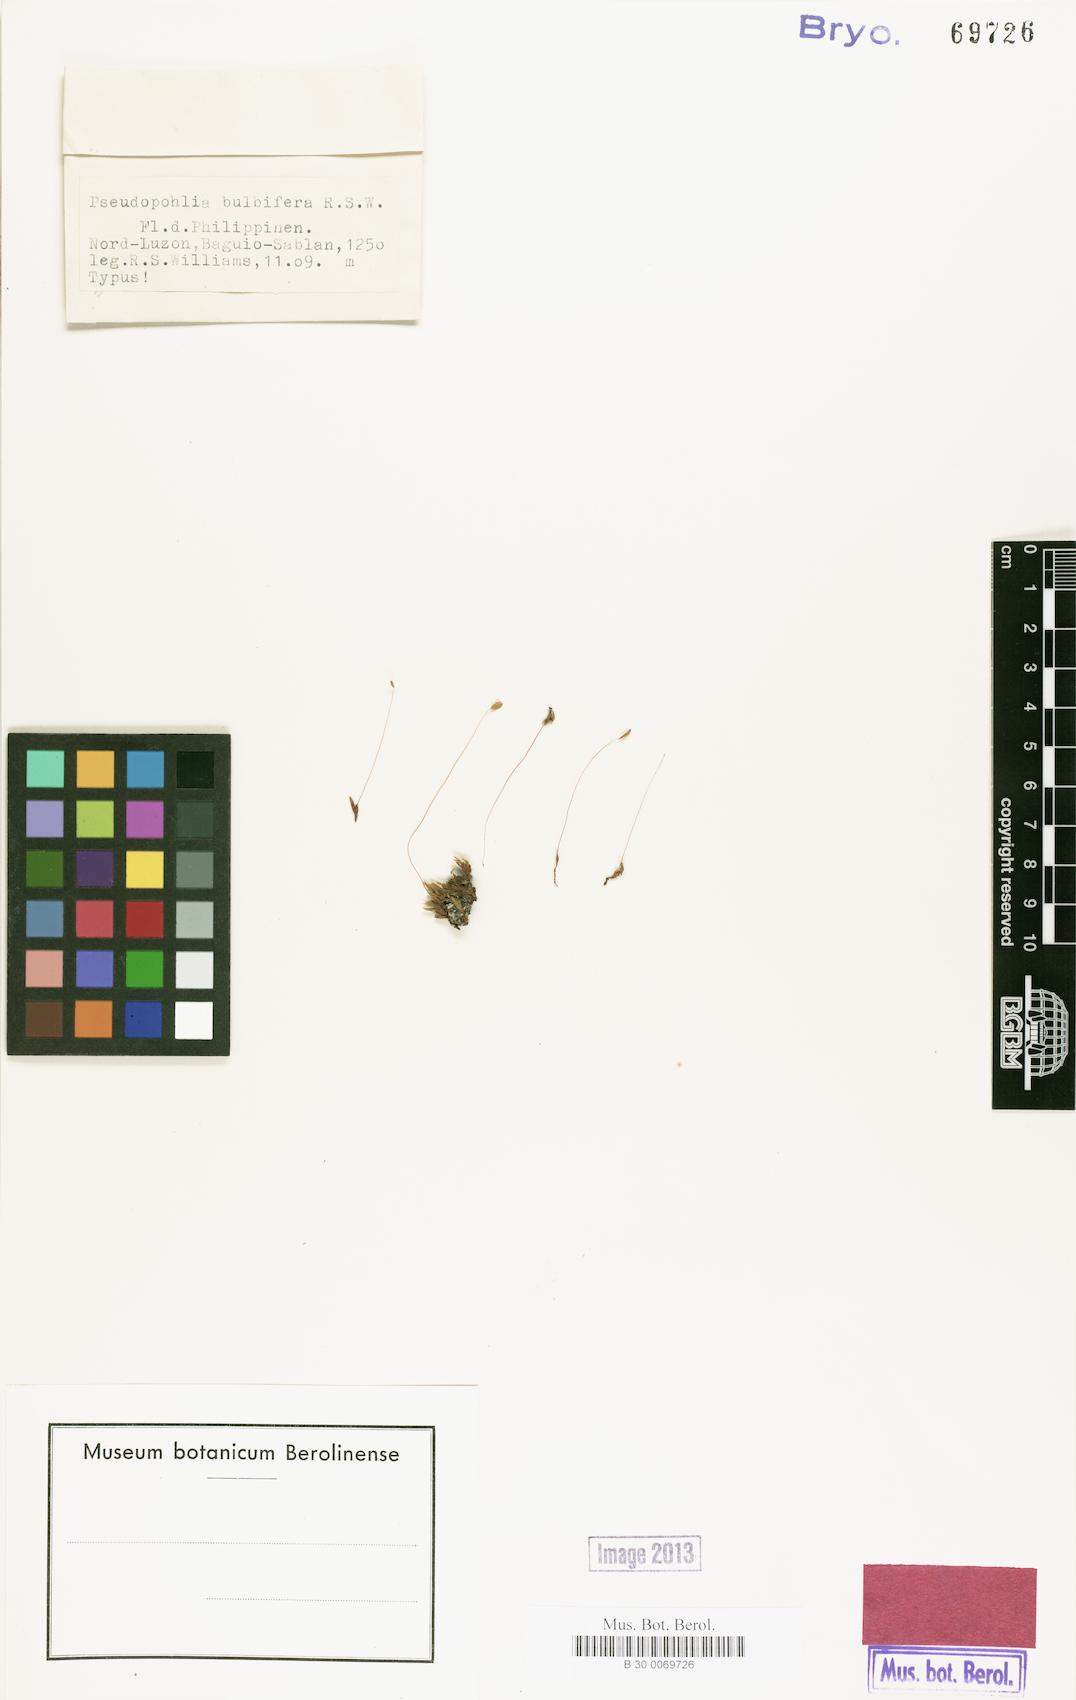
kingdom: Plantae
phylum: Bryophyta
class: Bryopsida
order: Bryales
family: Mniaceae
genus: Pseudopohlia
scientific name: Pseudopohlia microstoma
